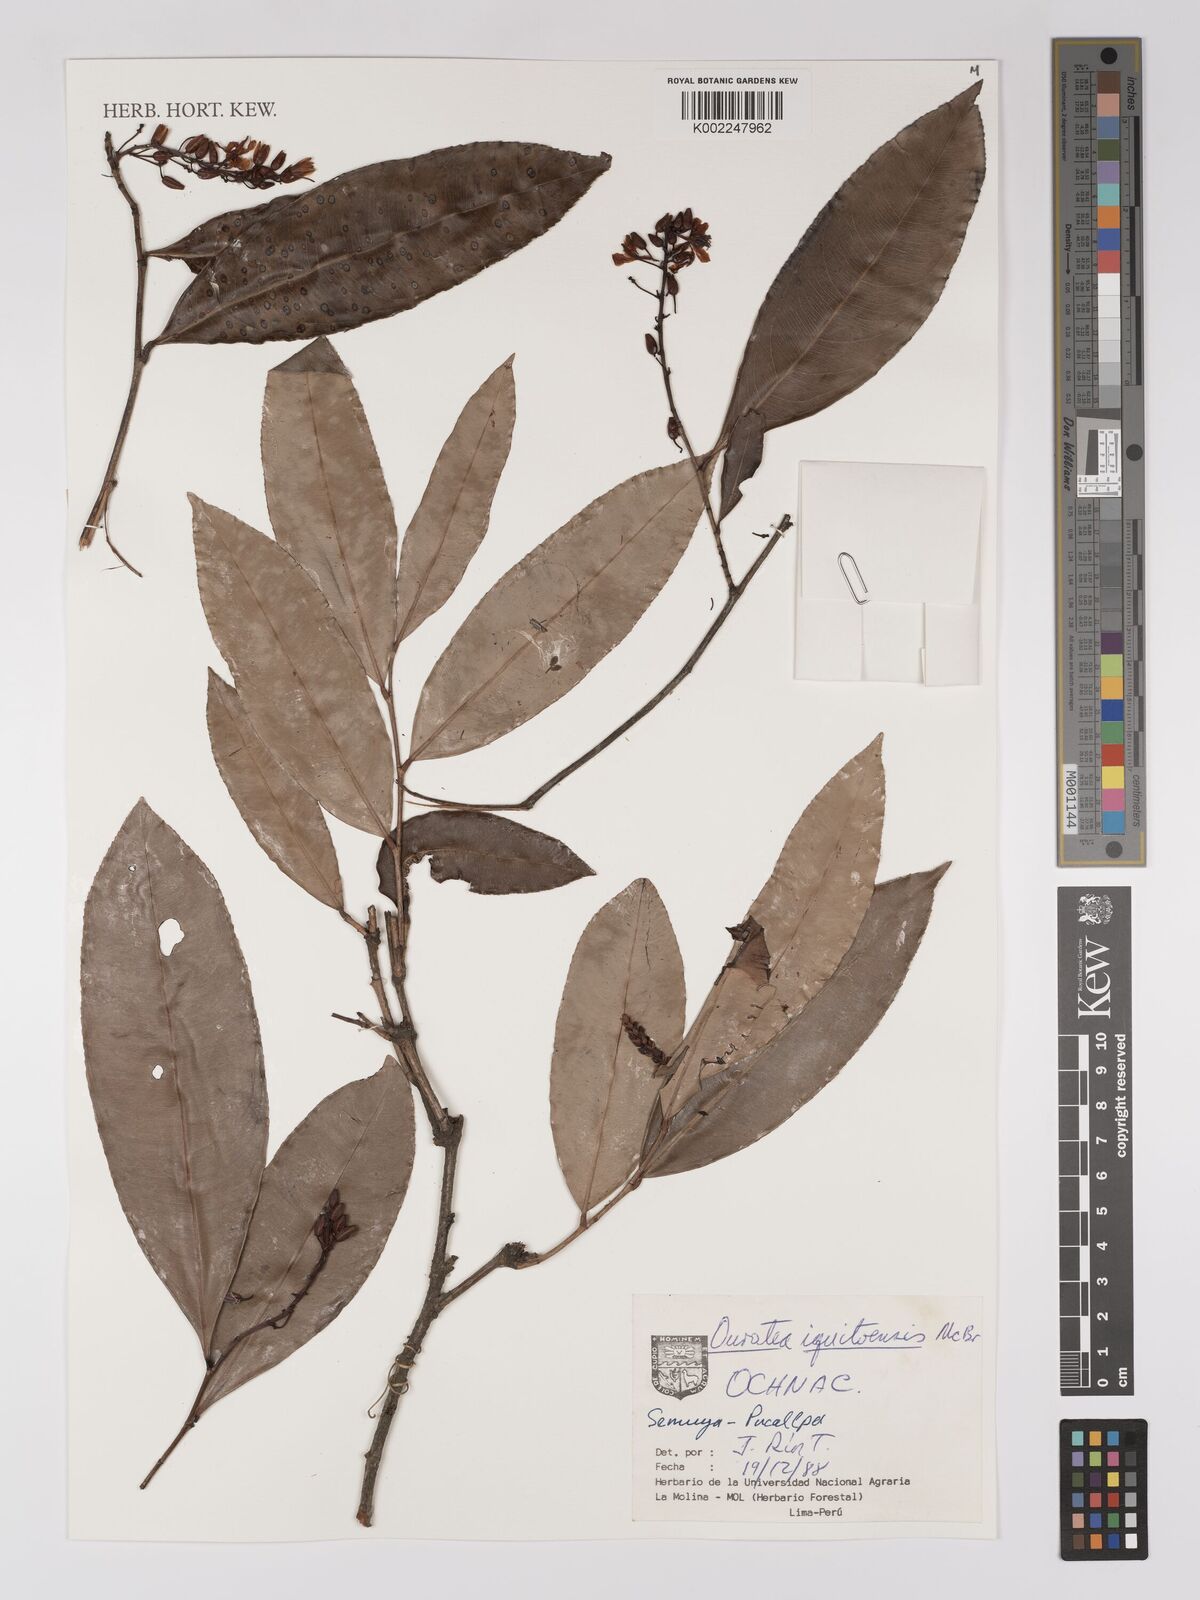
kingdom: Plantae
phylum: Tracheophyta
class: Magnoliopsida
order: Malpighiales
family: Ochnaceae
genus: Ouratea
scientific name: Ouratea iquitosensis
